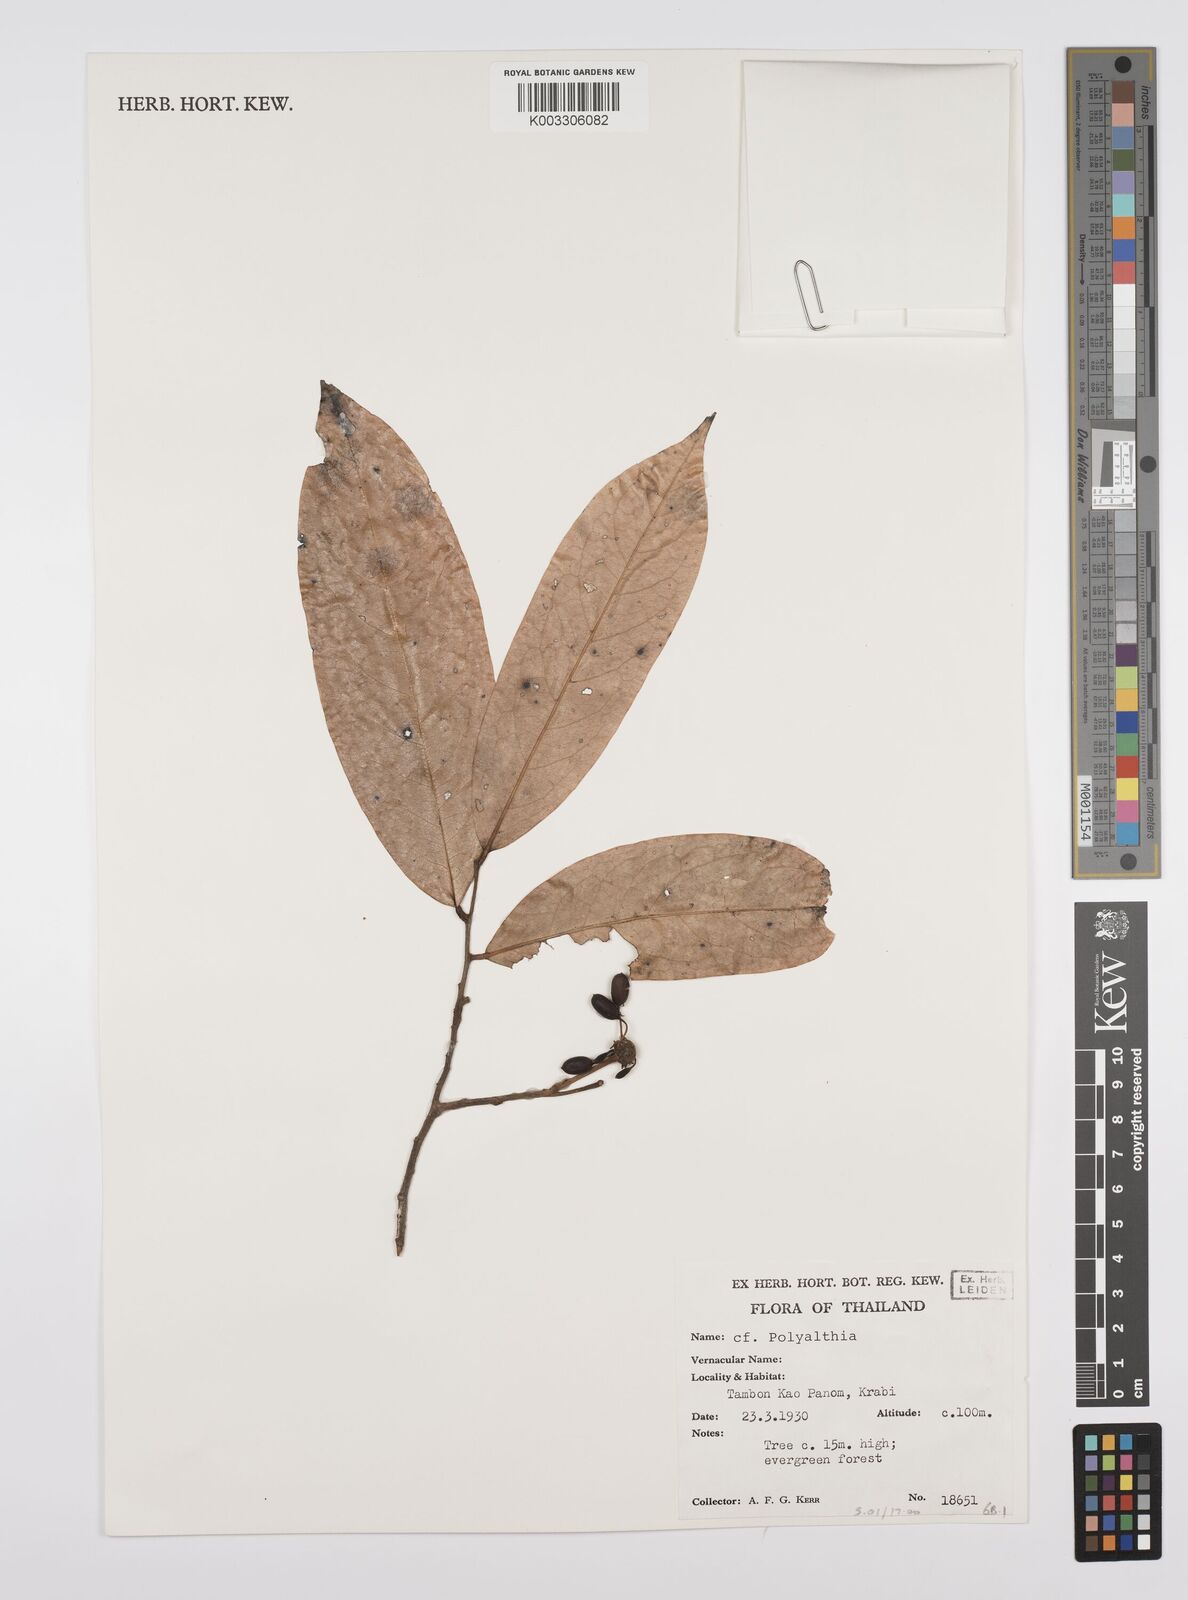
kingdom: Plantae
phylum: Tracheophyta
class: Magnoliopsida
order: Magnoliales
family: Annonaceae
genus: Huberantha
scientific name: Huberantha
